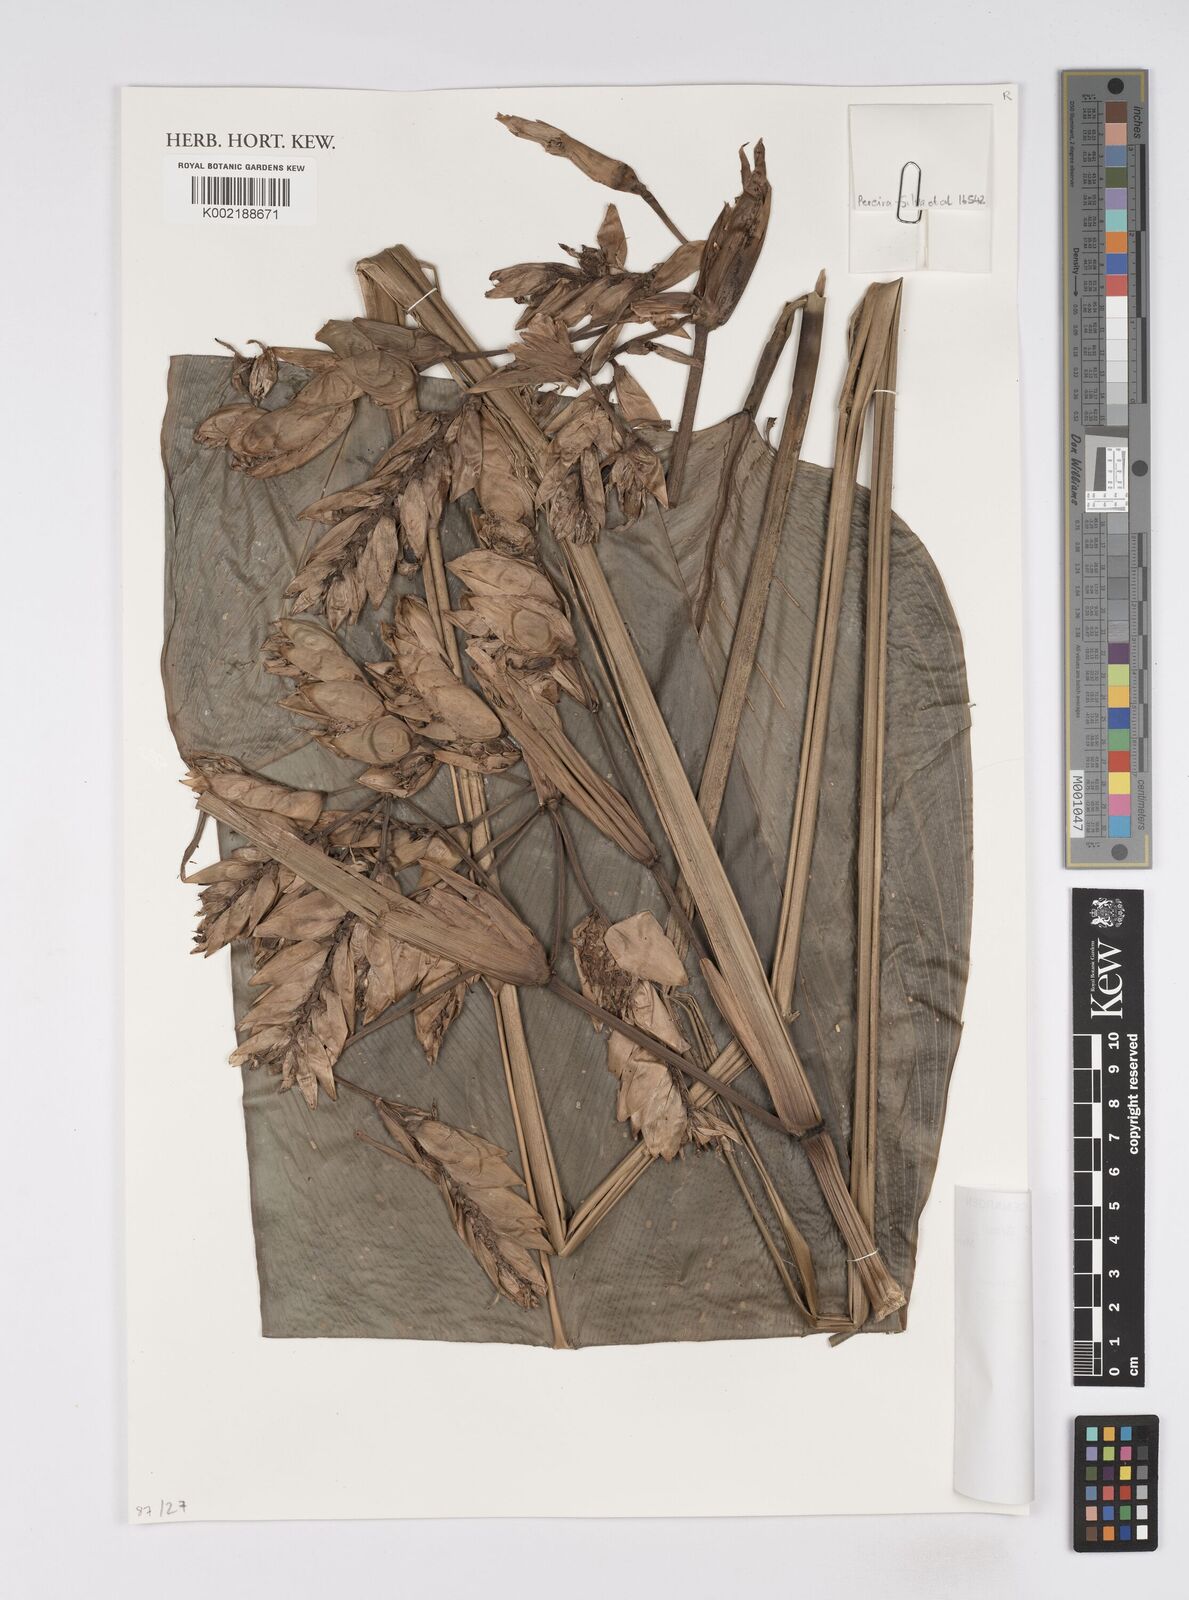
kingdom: Plantae
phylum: Tracheophyta
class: Liliopsida
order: Zingiberales
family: Marantaceae
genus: Ctenanthe
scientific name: Ctenanthe ericae
